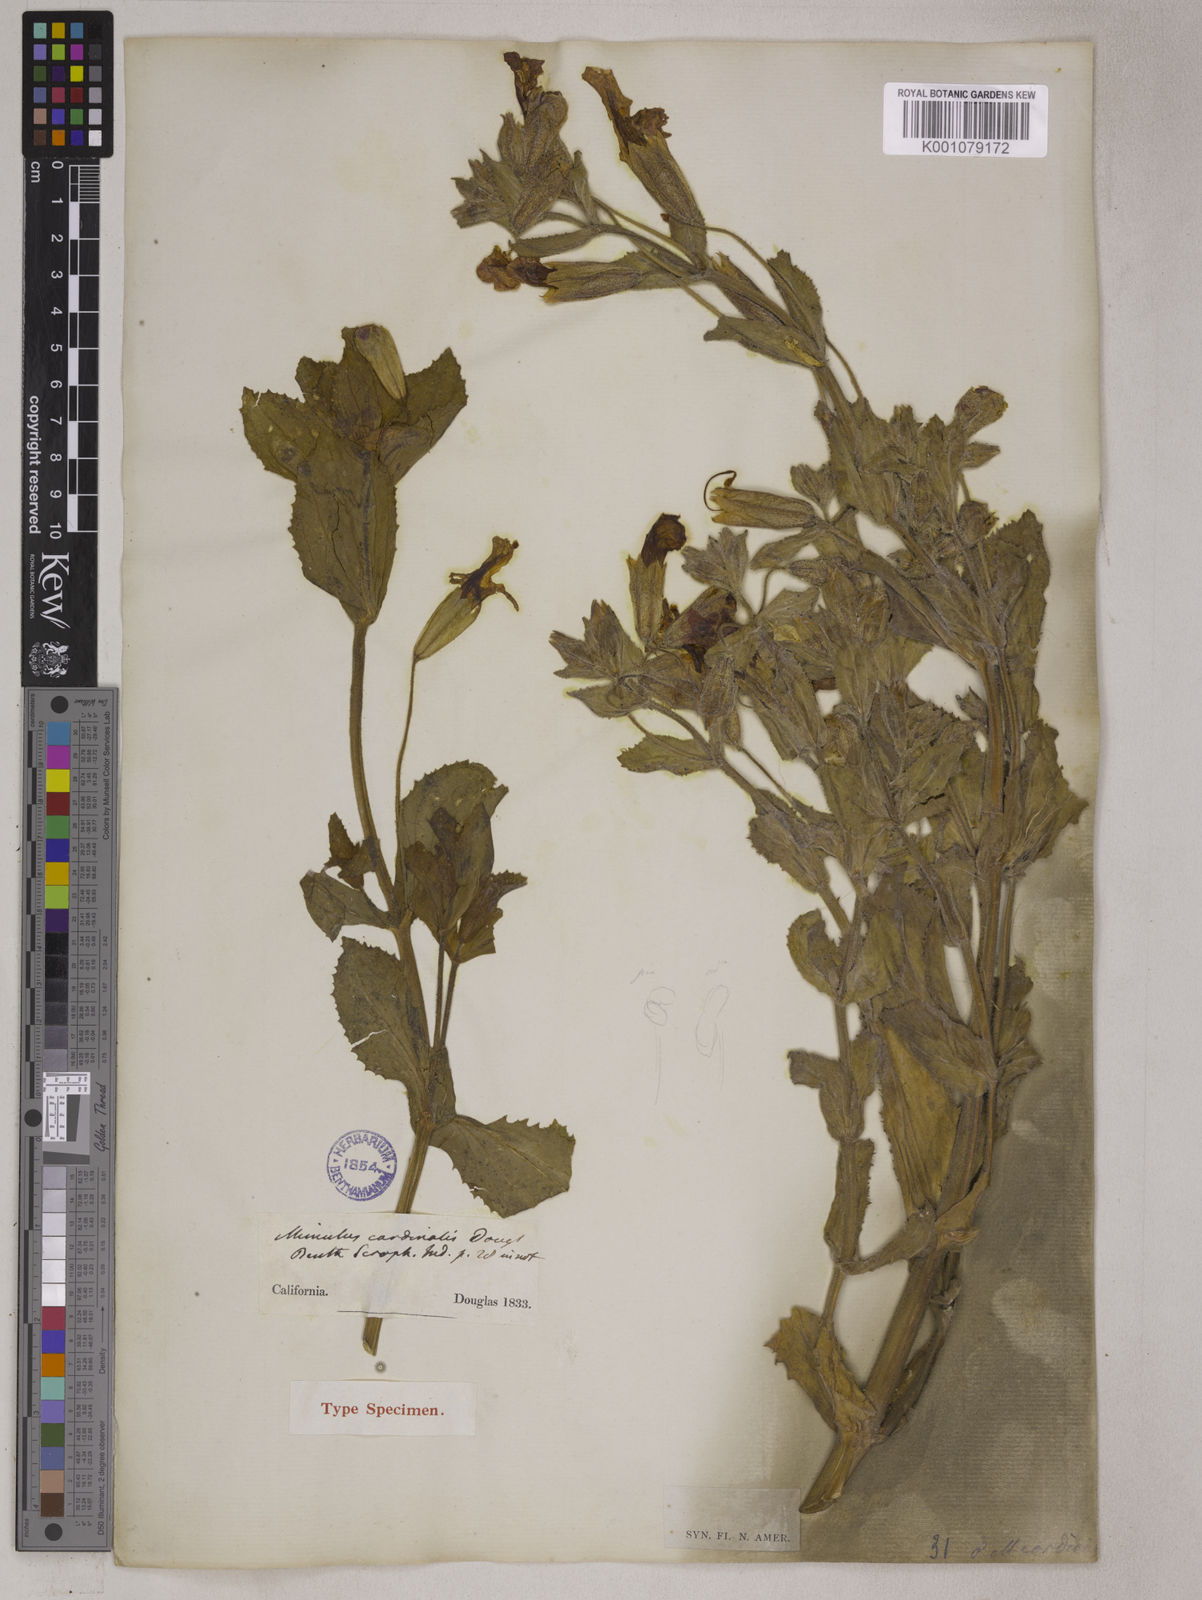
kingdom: Plantae
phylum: Tracheophyta
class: Magnoliopsida
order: Lamiales
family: Phrymaceae
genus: Erythranthe
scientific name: Erythranthe cardinalis
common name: Scarlet monkey-flower
